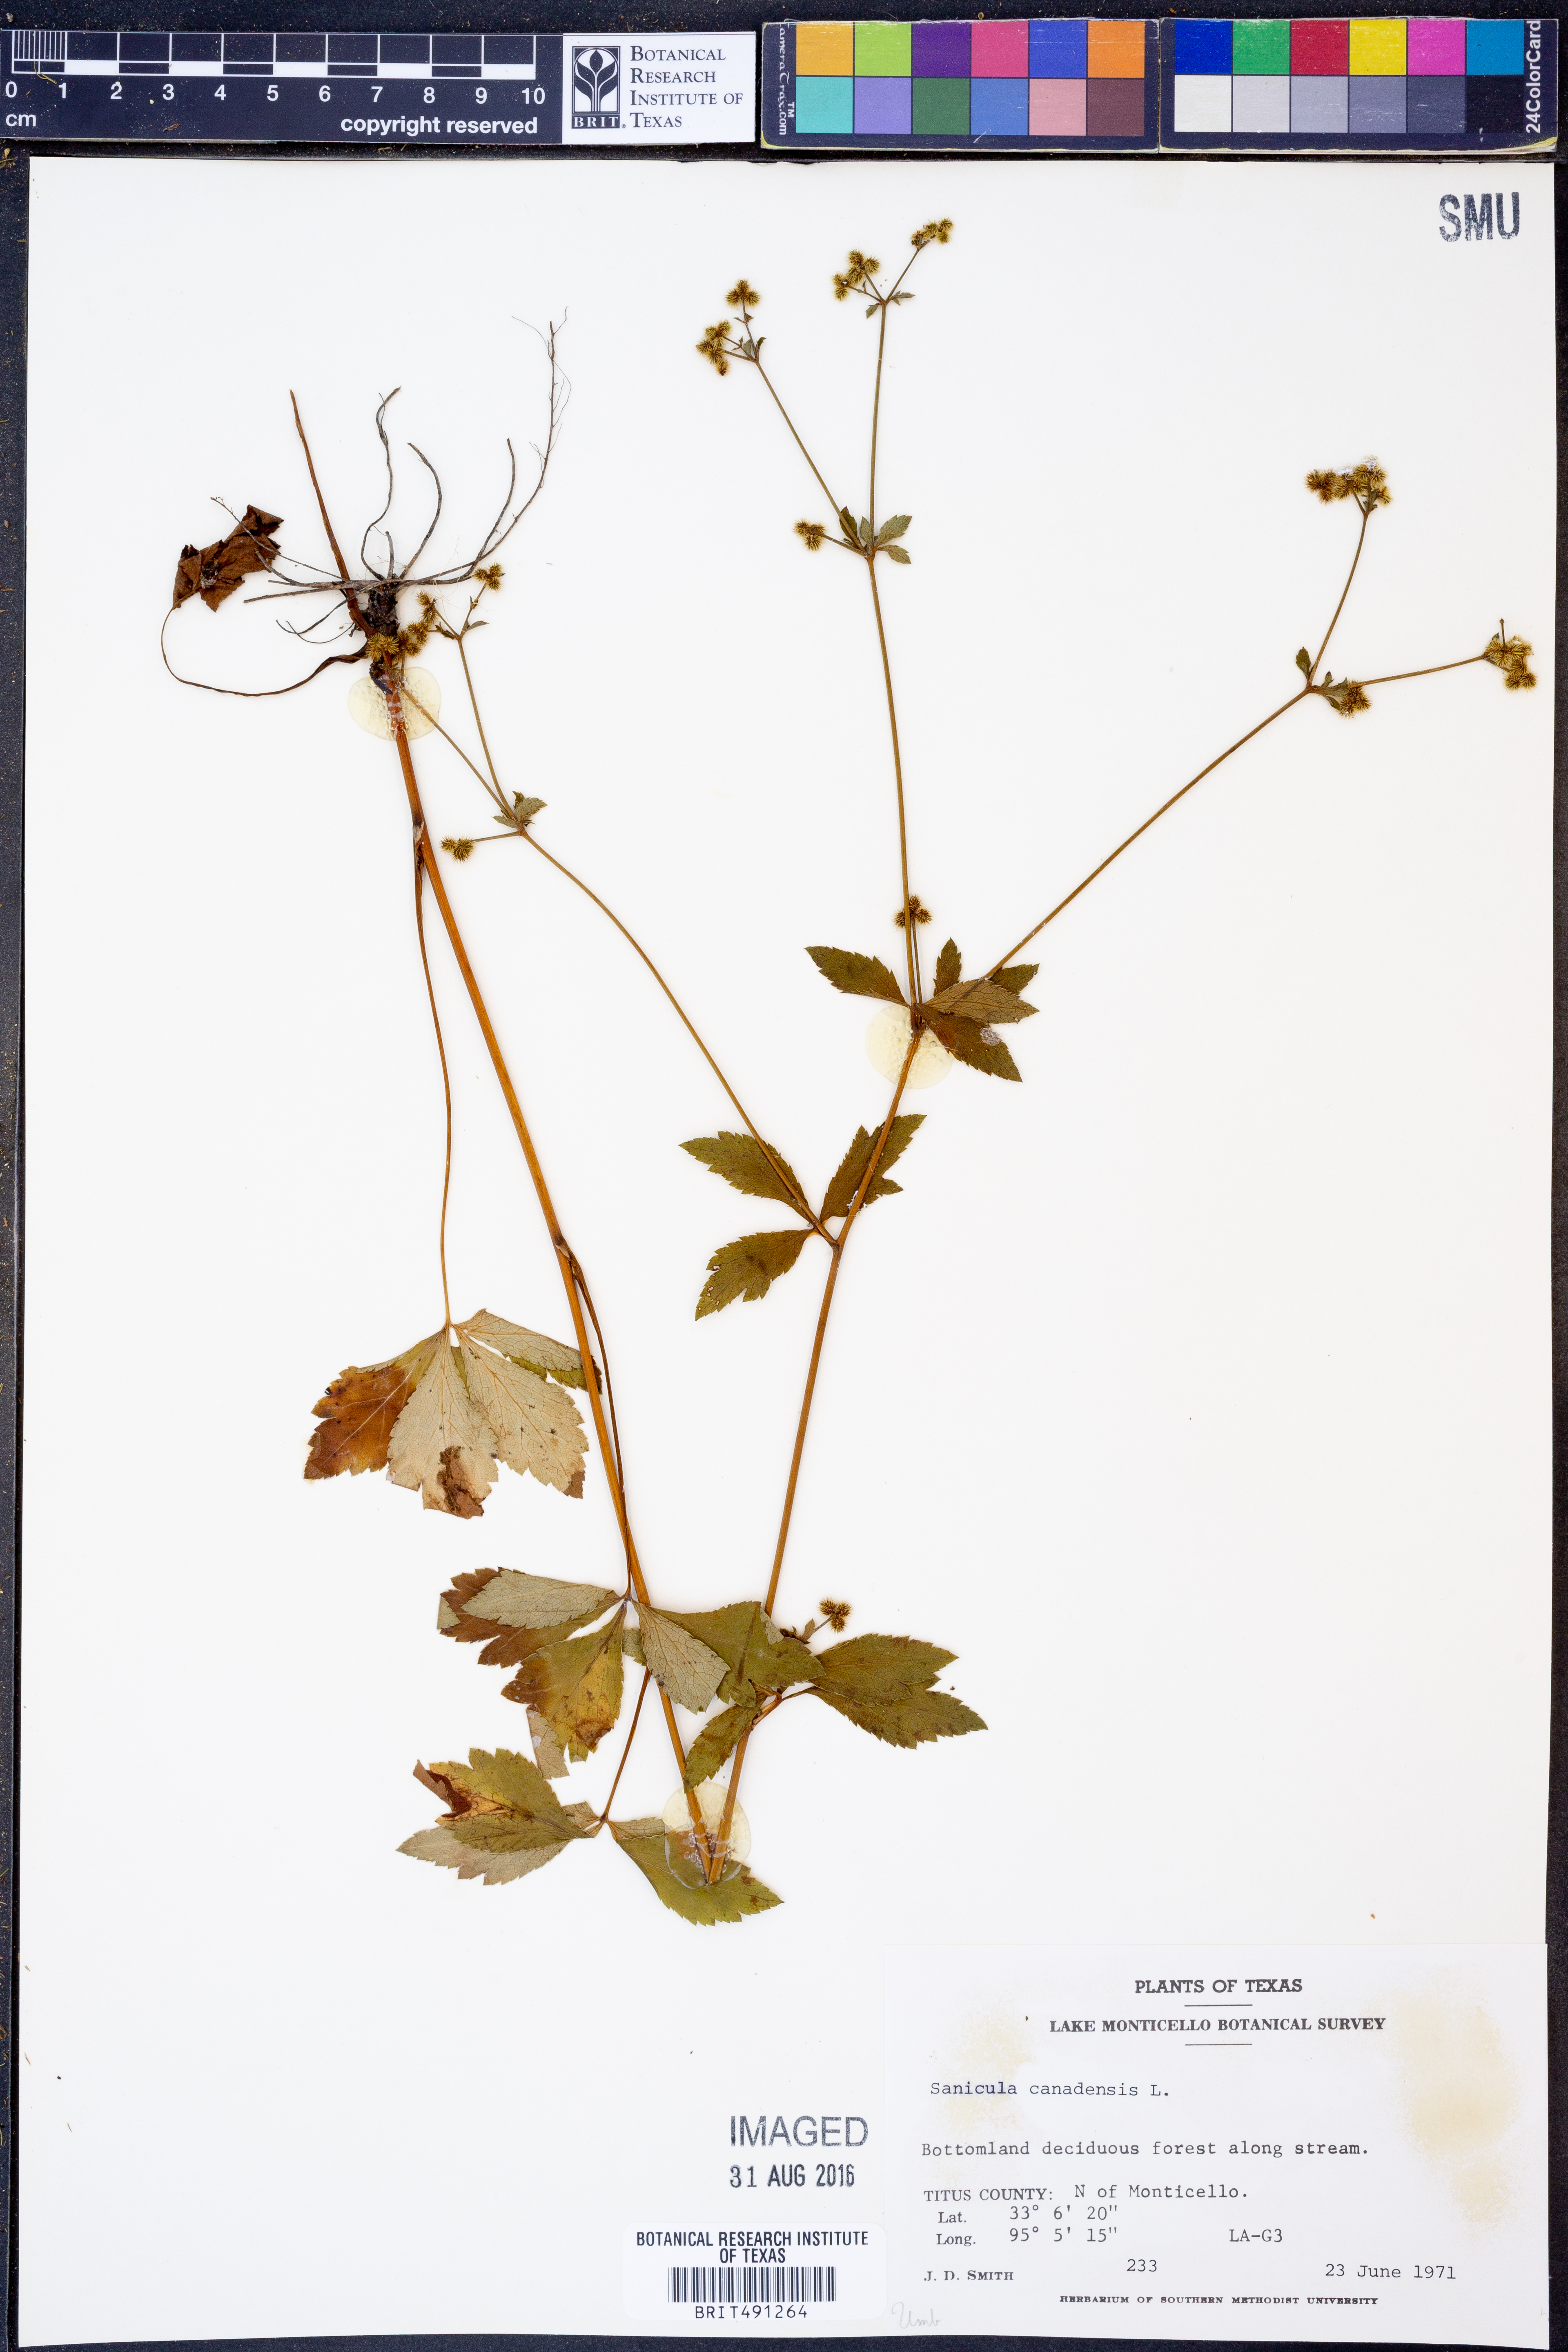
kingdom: Plantae
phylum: Tracheophyta
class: Magnoliopsida
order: Apiales
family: Apiaceae
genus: Sanicula
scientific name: Sanicula canadensis
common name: Canada sanicle
